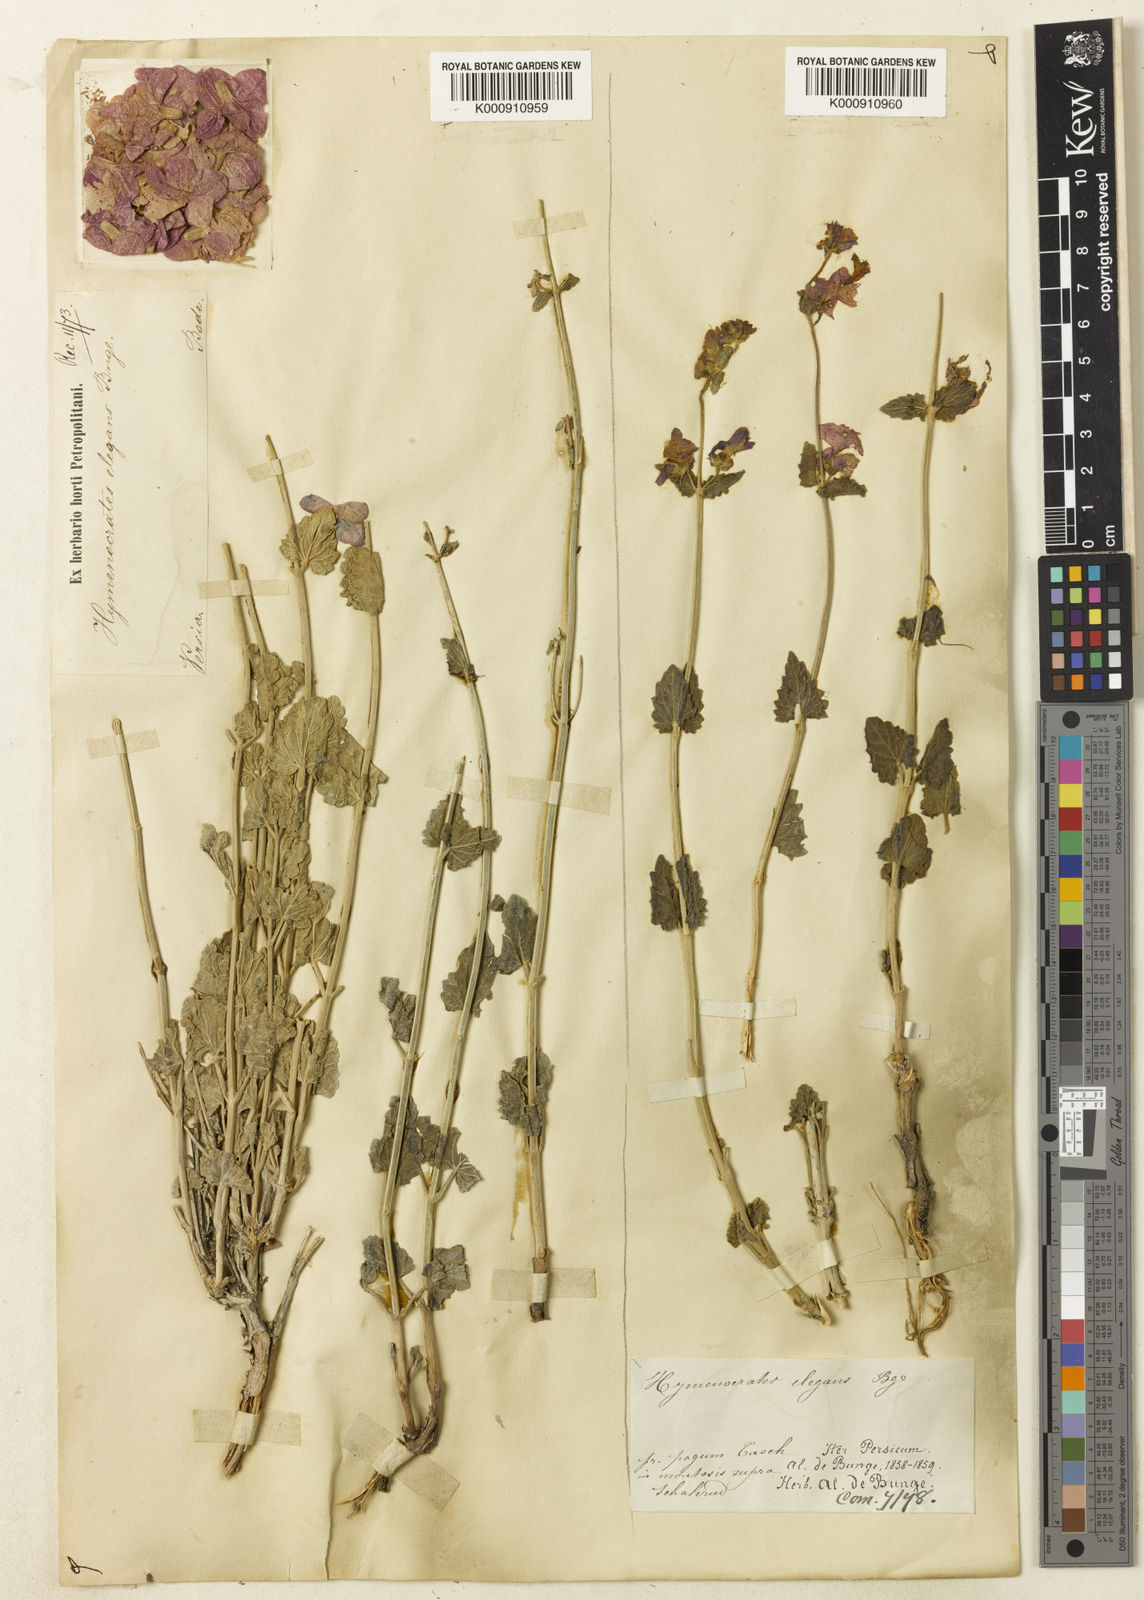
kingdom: Plantae
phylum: Tracheophyta
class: Magnoliopsida
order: Lamiales
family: Lamiaceae
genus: Nepeta
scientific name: Nepeta elegantissima
